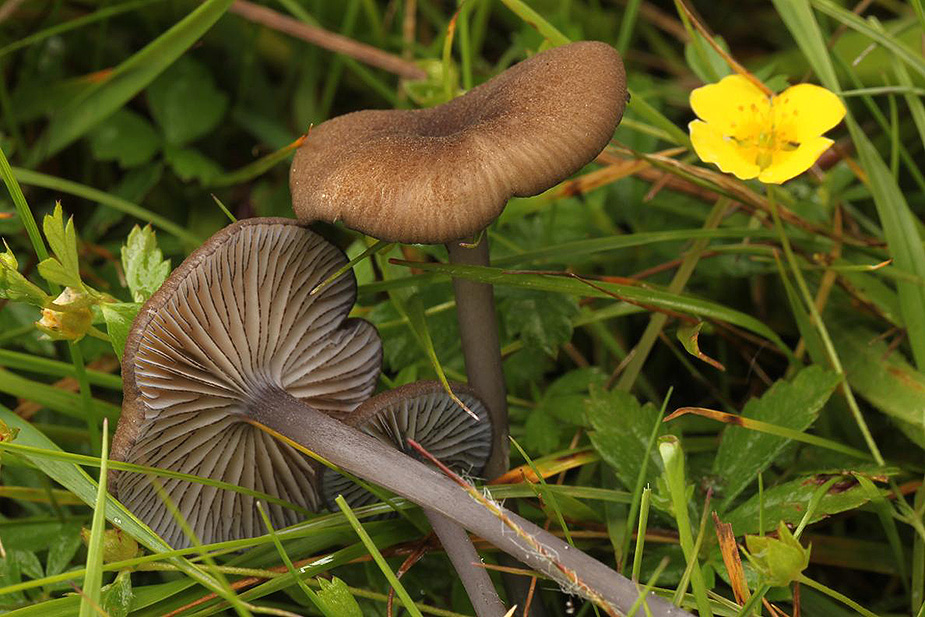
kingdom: Fungi
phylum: Basidiomycota
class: Agaricomycetes
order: Agaricales
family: Entolomataceae
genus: Entoloma
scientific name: Entoloma caesiocinctum
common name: Blue-girdled pinkgill
